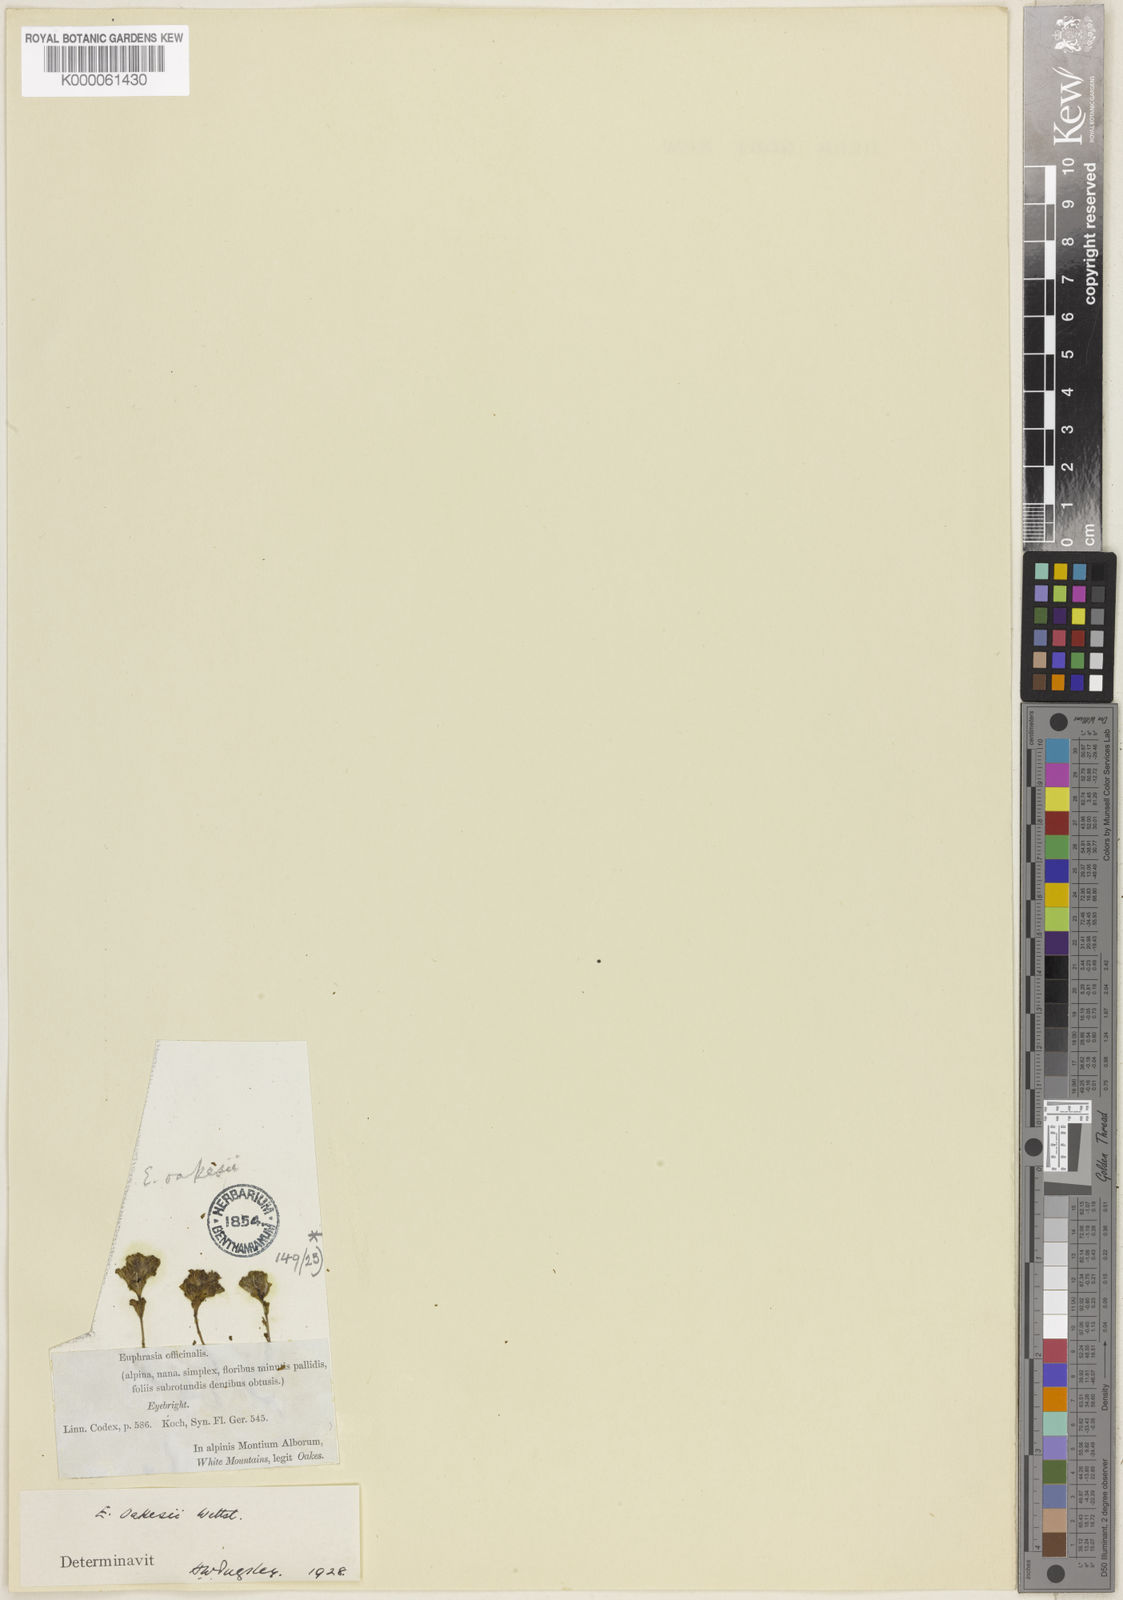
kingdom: Plantae
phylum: Tracheophyta
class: Magnoliopsida
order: Lamiales
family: Orobanchaceae
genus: Euphrasia
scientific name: Euphrasia oakesii
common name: Oakes' eyebright
